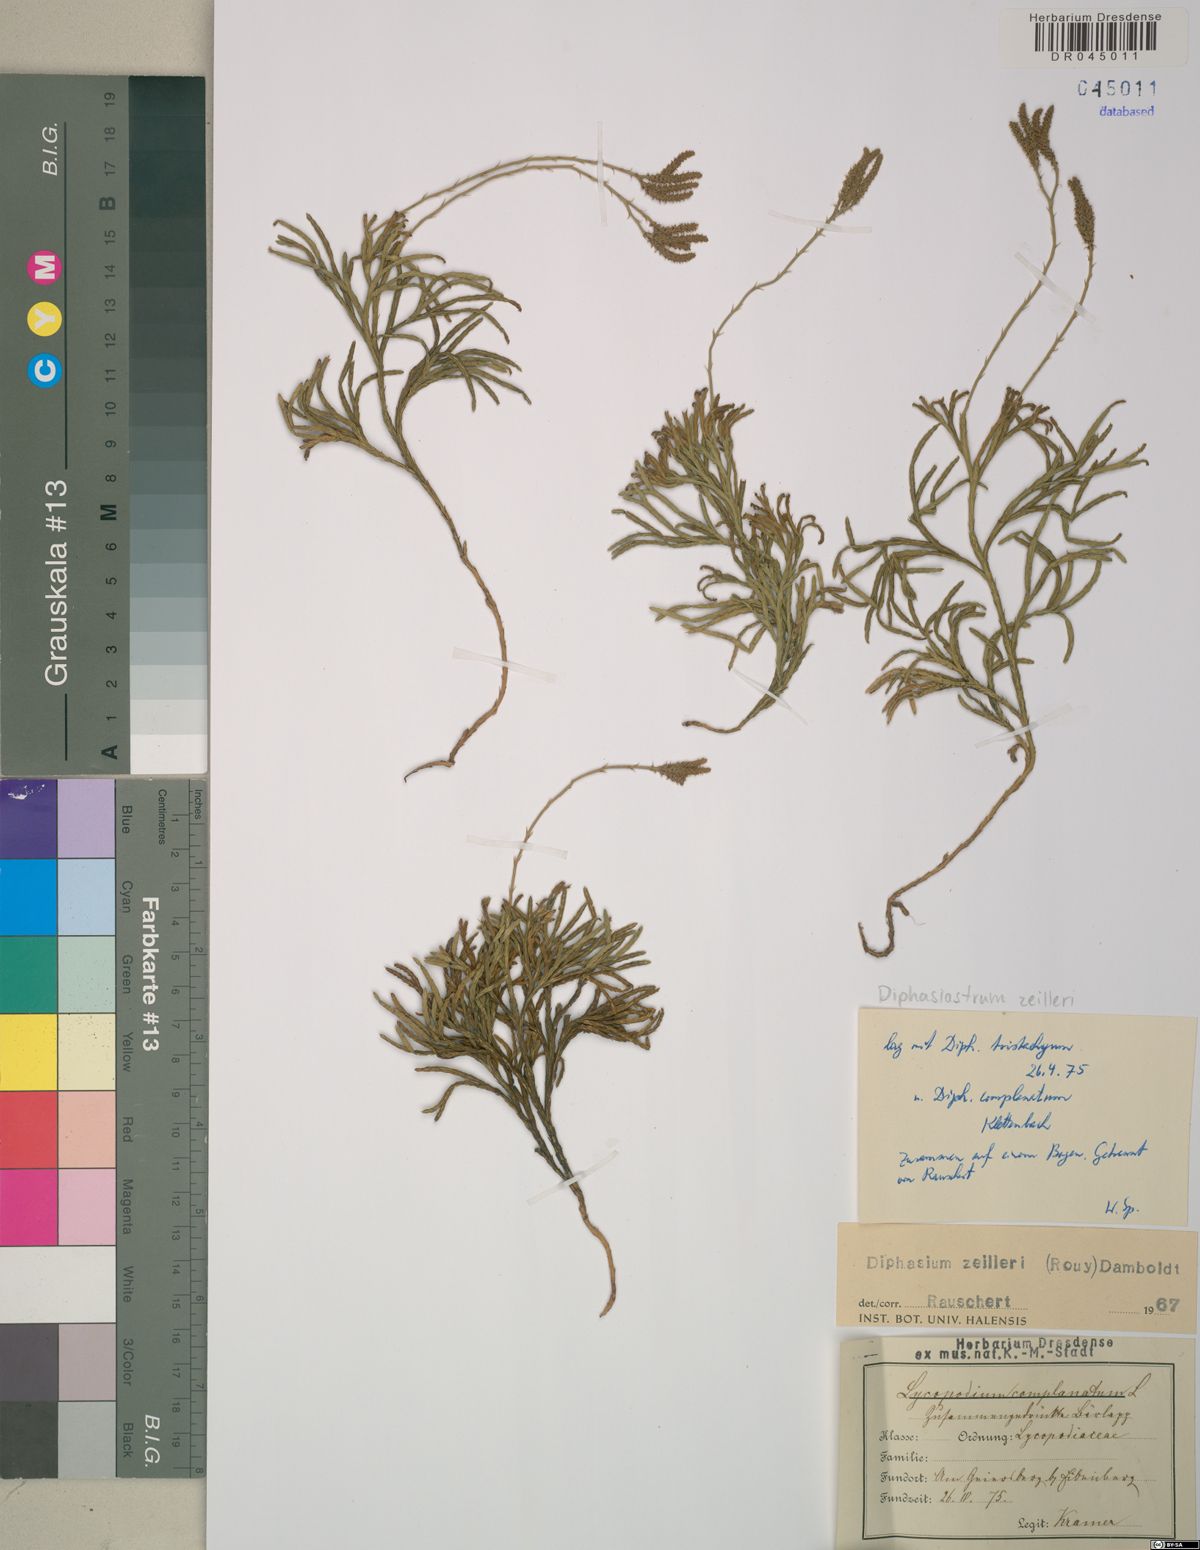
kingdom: Plantae
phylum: Tracheophyta
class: Lycopodiopsida
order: Lycopodiales
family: Lycopodiaceae
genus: Diphasiastrum
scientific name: Diphasiastrum zeilleri
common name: Zeiller's clubmoss
